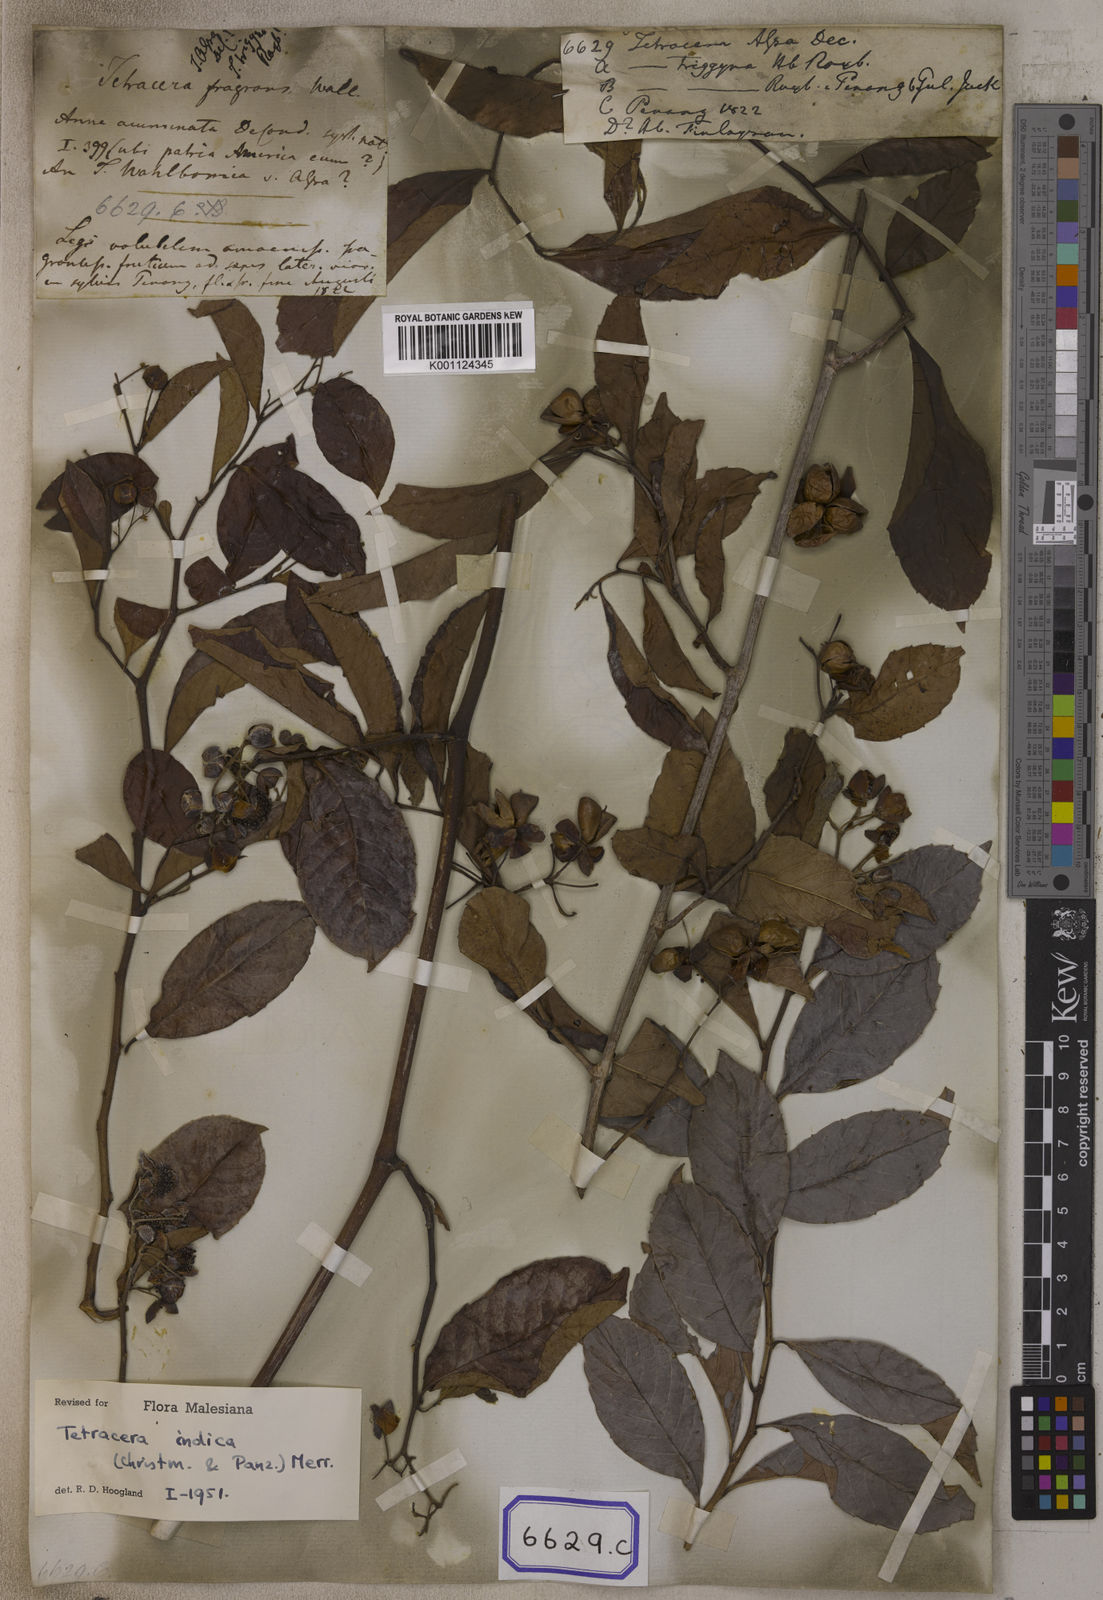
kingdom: Plantae
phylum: Tracheophyta
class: Magnoliopsida
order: Dilleniales
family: Dilleniaceae
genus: Tetracera
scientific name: Tetracera indica
